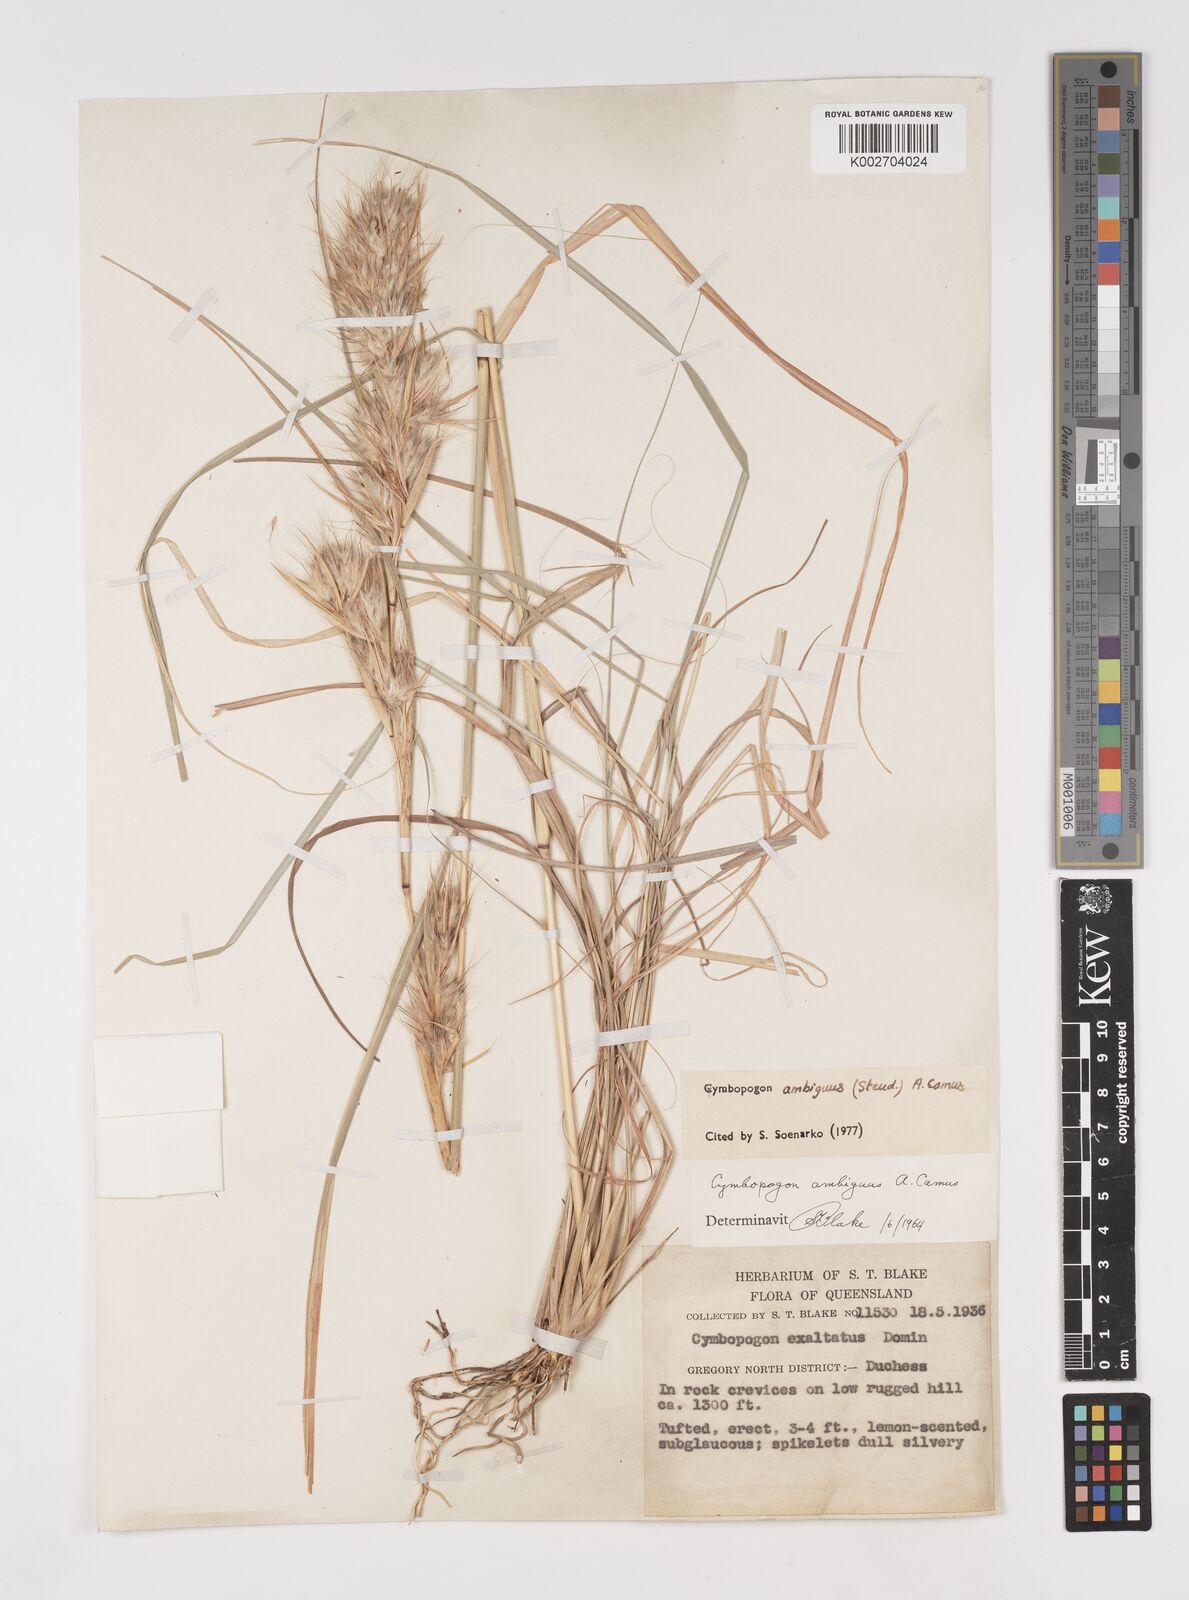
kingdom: Plantae
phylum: Tracheophyta
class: Liliopsida
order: Poales
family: Poaceae
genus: Cymbopogon
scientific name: Cymbopogon ambiguus
